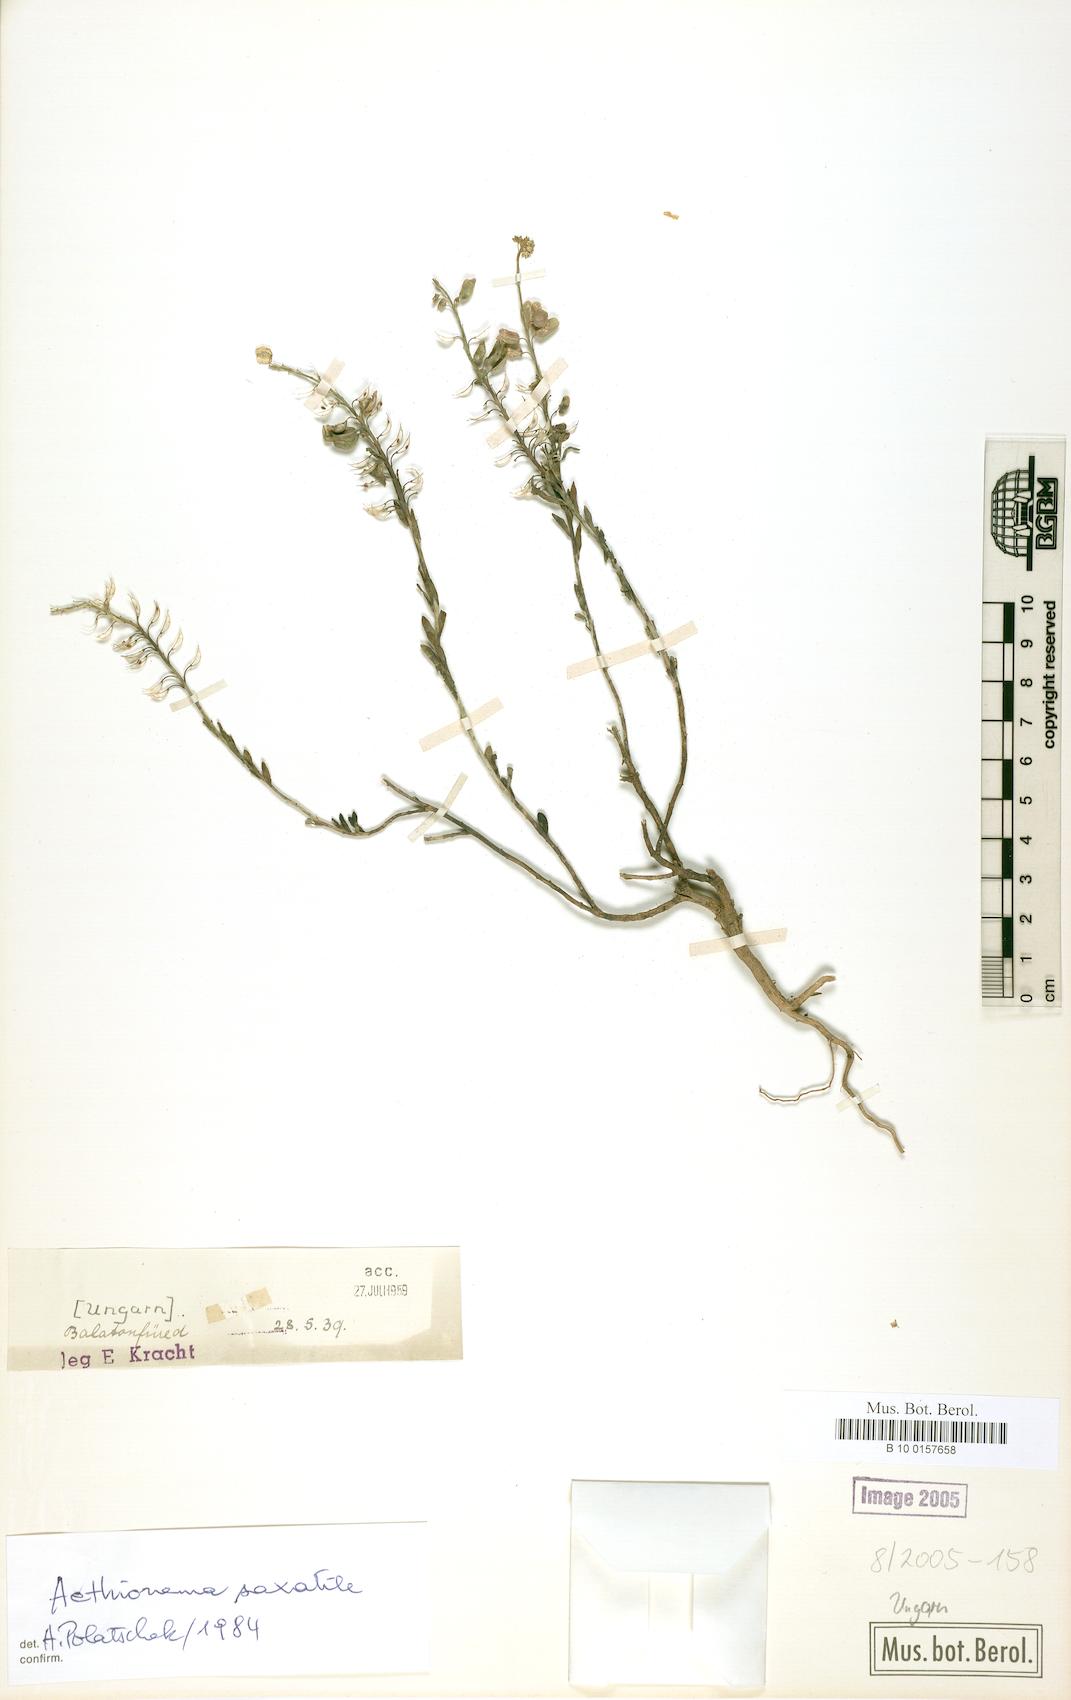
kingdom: Plantae
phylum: Tracheophyta
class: Magnoliopsida
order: Brassicales
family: Brassicaceae
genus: Aethionema
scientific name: Aethionema saxatile
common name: Burnt candytuft
